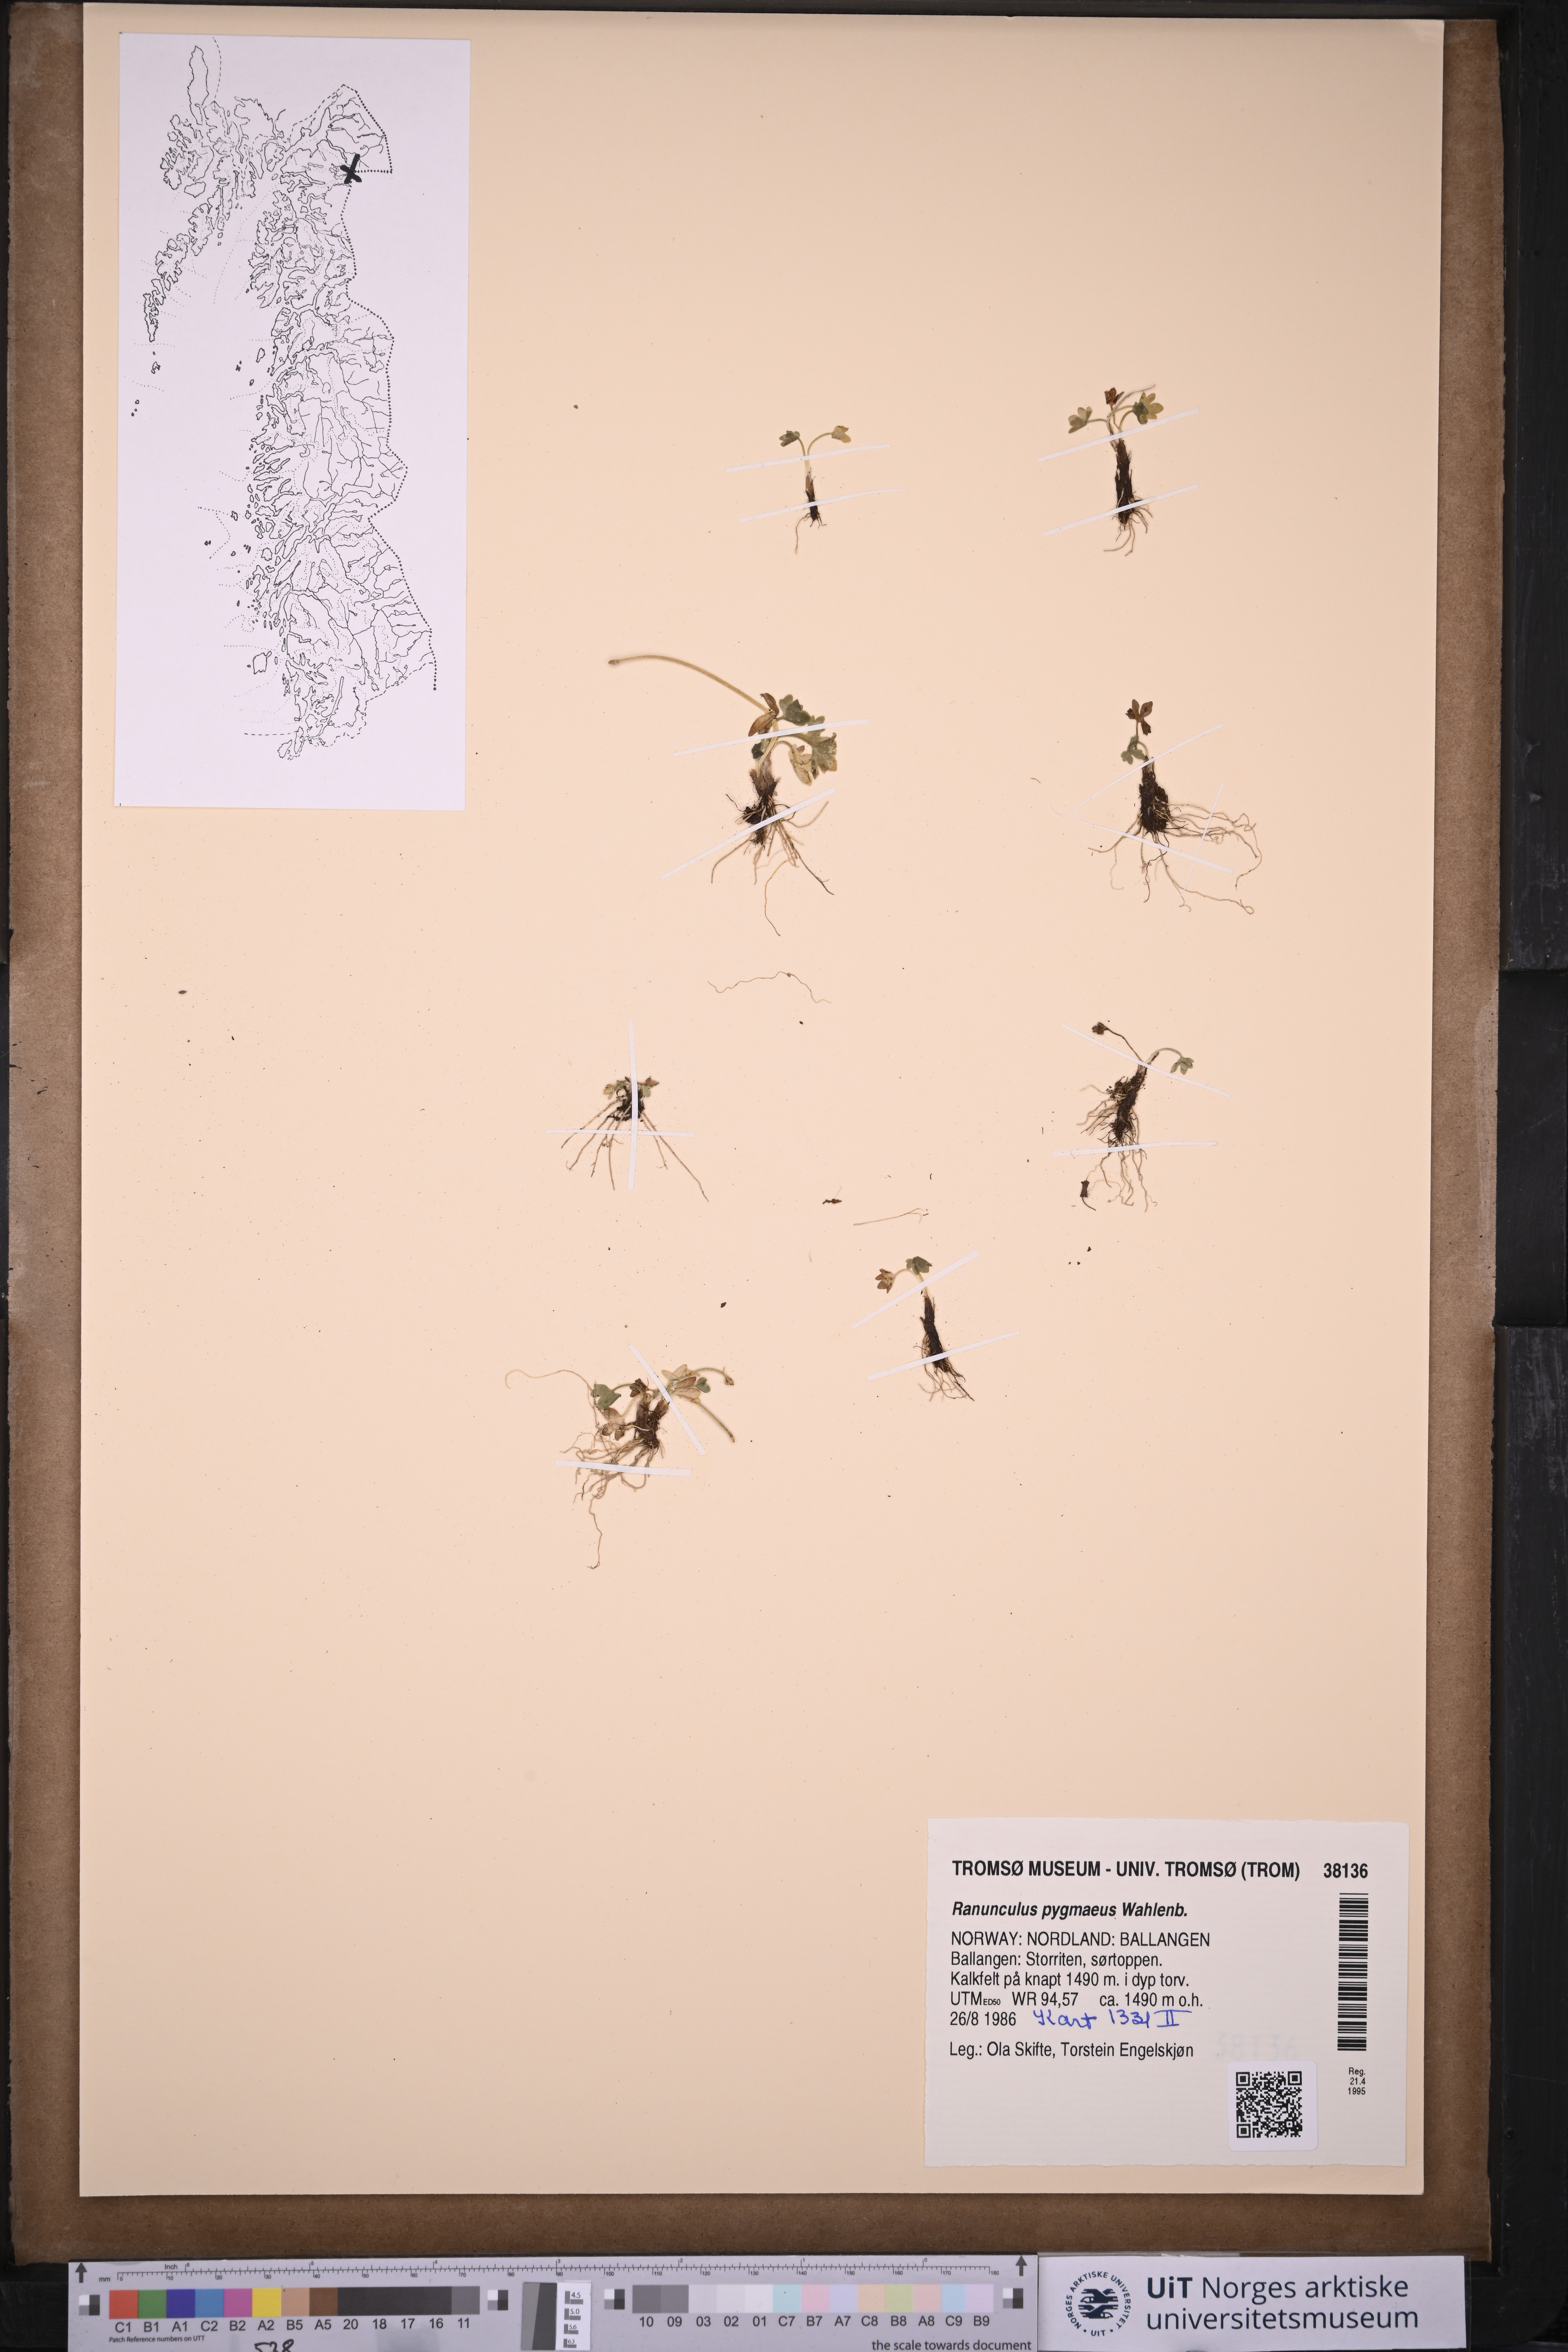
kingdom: Plantae
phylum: Tracheophyta
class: Magnoliopsida
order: Ranunculales
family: Ranunculaceae
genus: Ranunculus
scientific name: Ranunculus pygmaeus
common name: Dwarf buttercup
